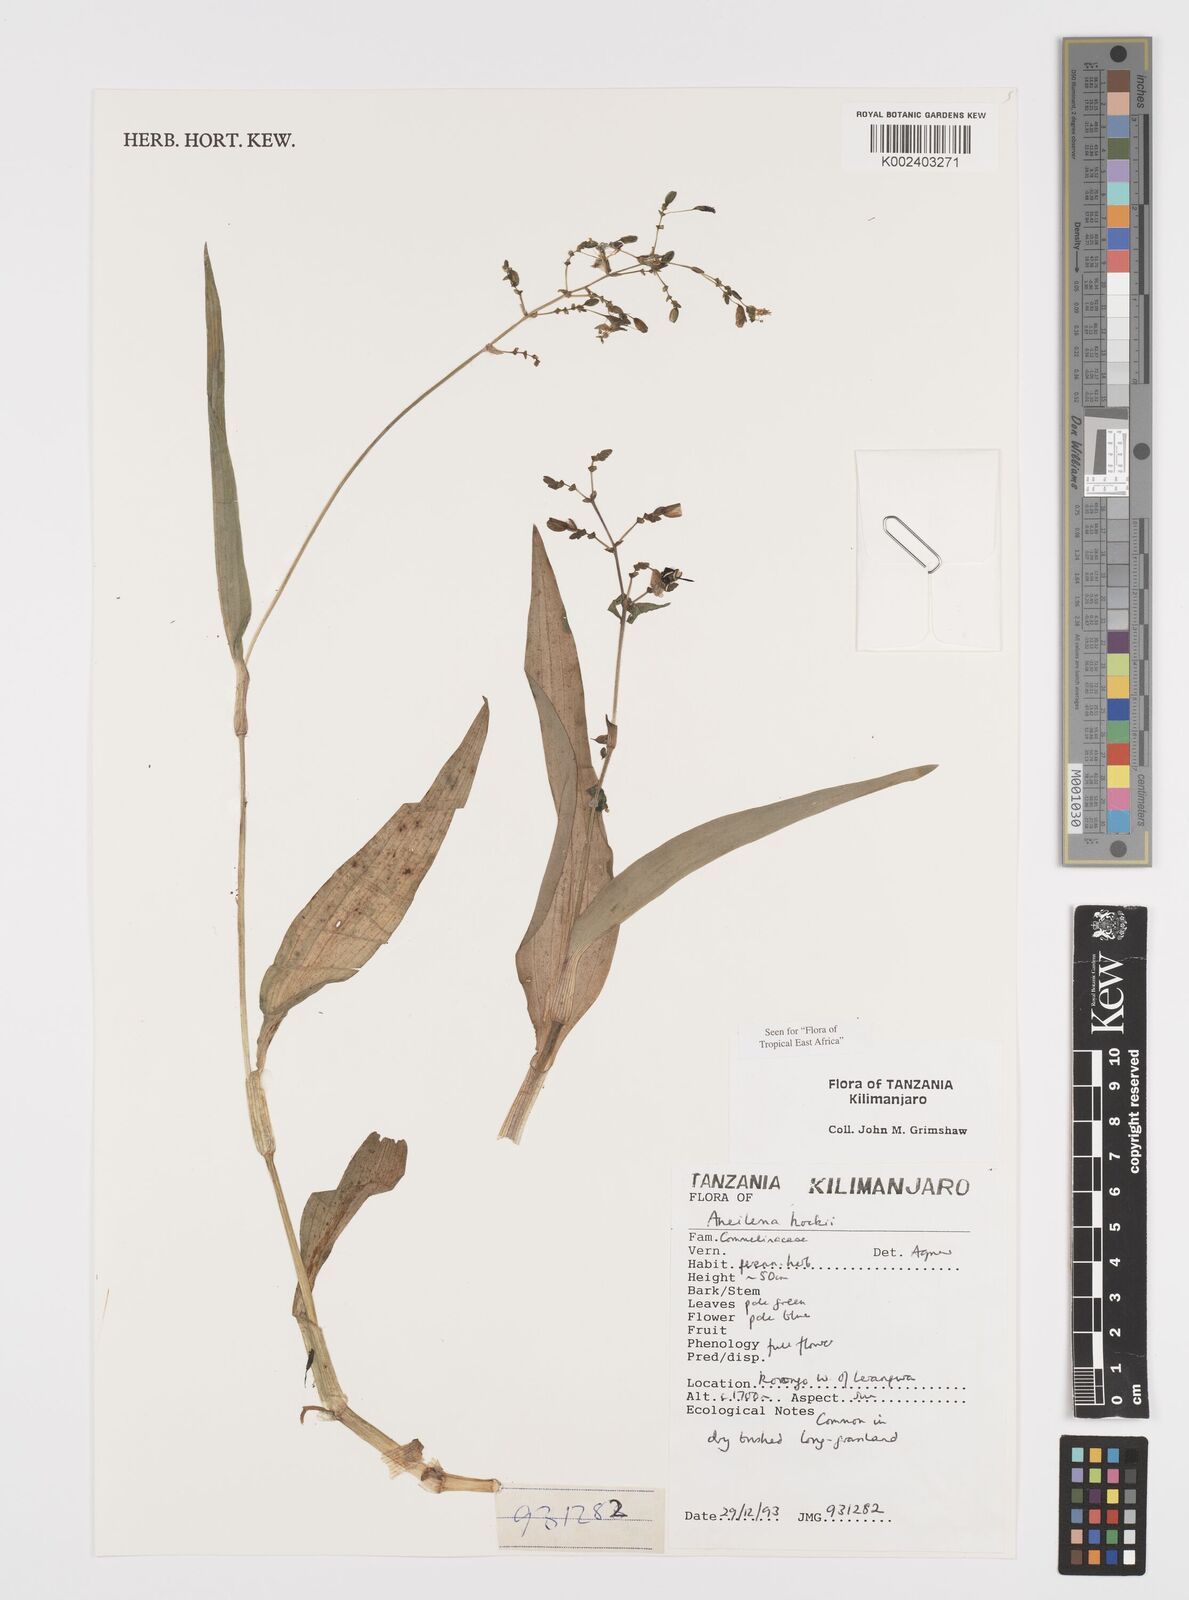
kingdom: Plantae
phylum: Tracheophyta
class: Liliopsida
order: Commelinales
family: Commelinaceae
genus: Aneilema
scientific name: Aneilema hockii
